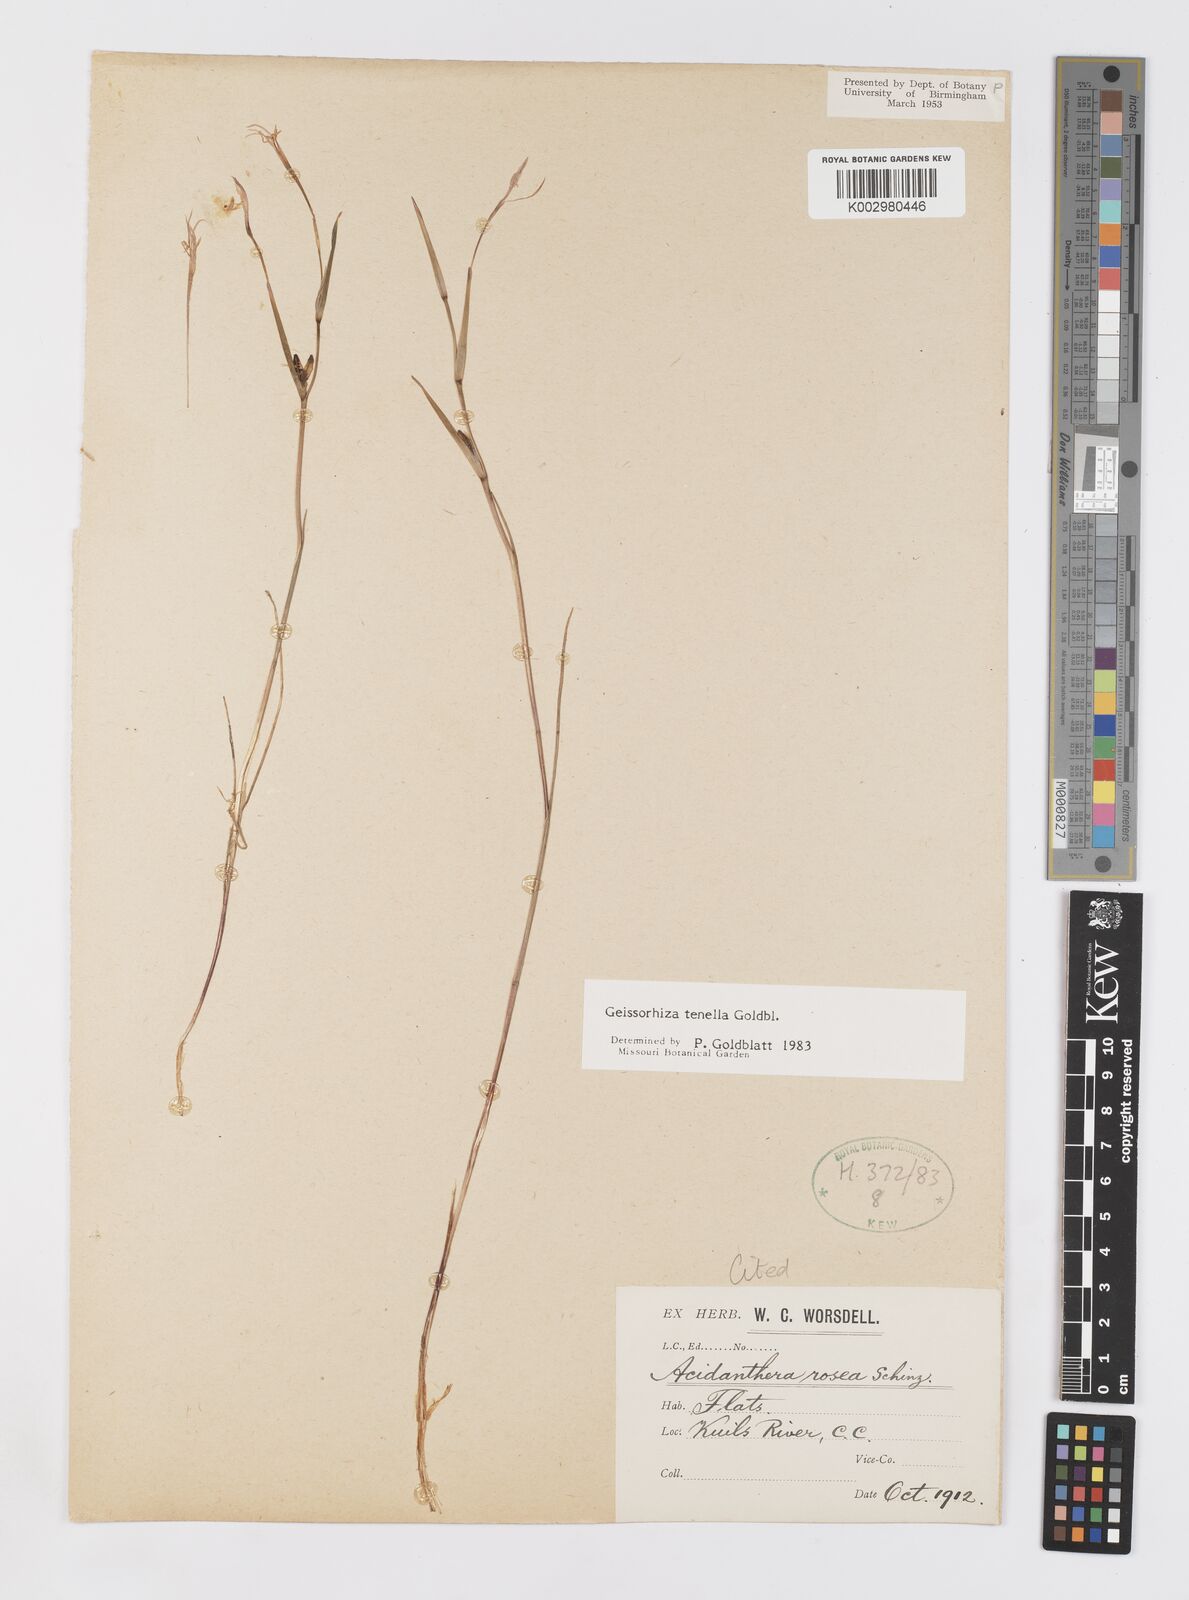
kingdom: Plantae
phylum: Tracheophyta
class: Liliopsida
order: Asparagales
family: Iridaceae
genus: Geissorhiza
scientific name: Geissorhiza tenella
